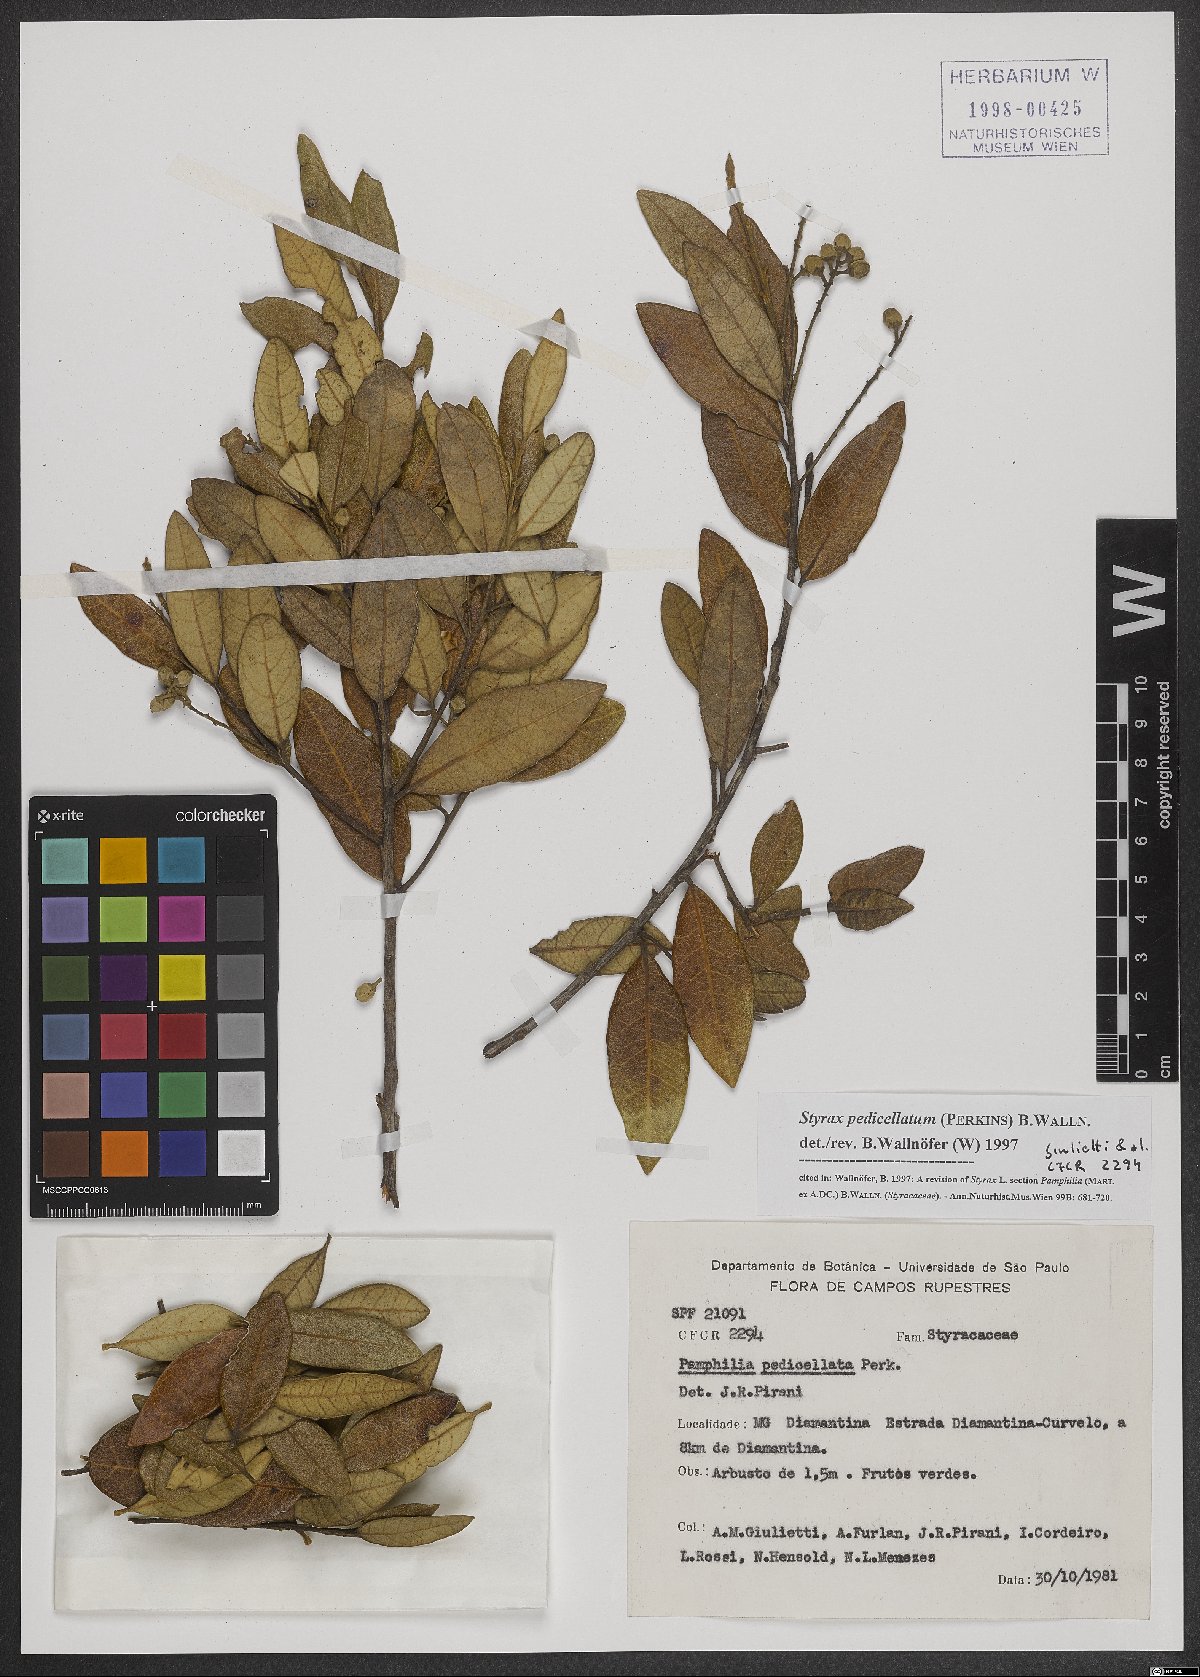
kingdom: Plantae
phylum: Tracheophyta
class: Magnoliopsida
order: Ericales
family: Styracaceae
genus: Styrax
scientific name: Styrax pedicellatus
